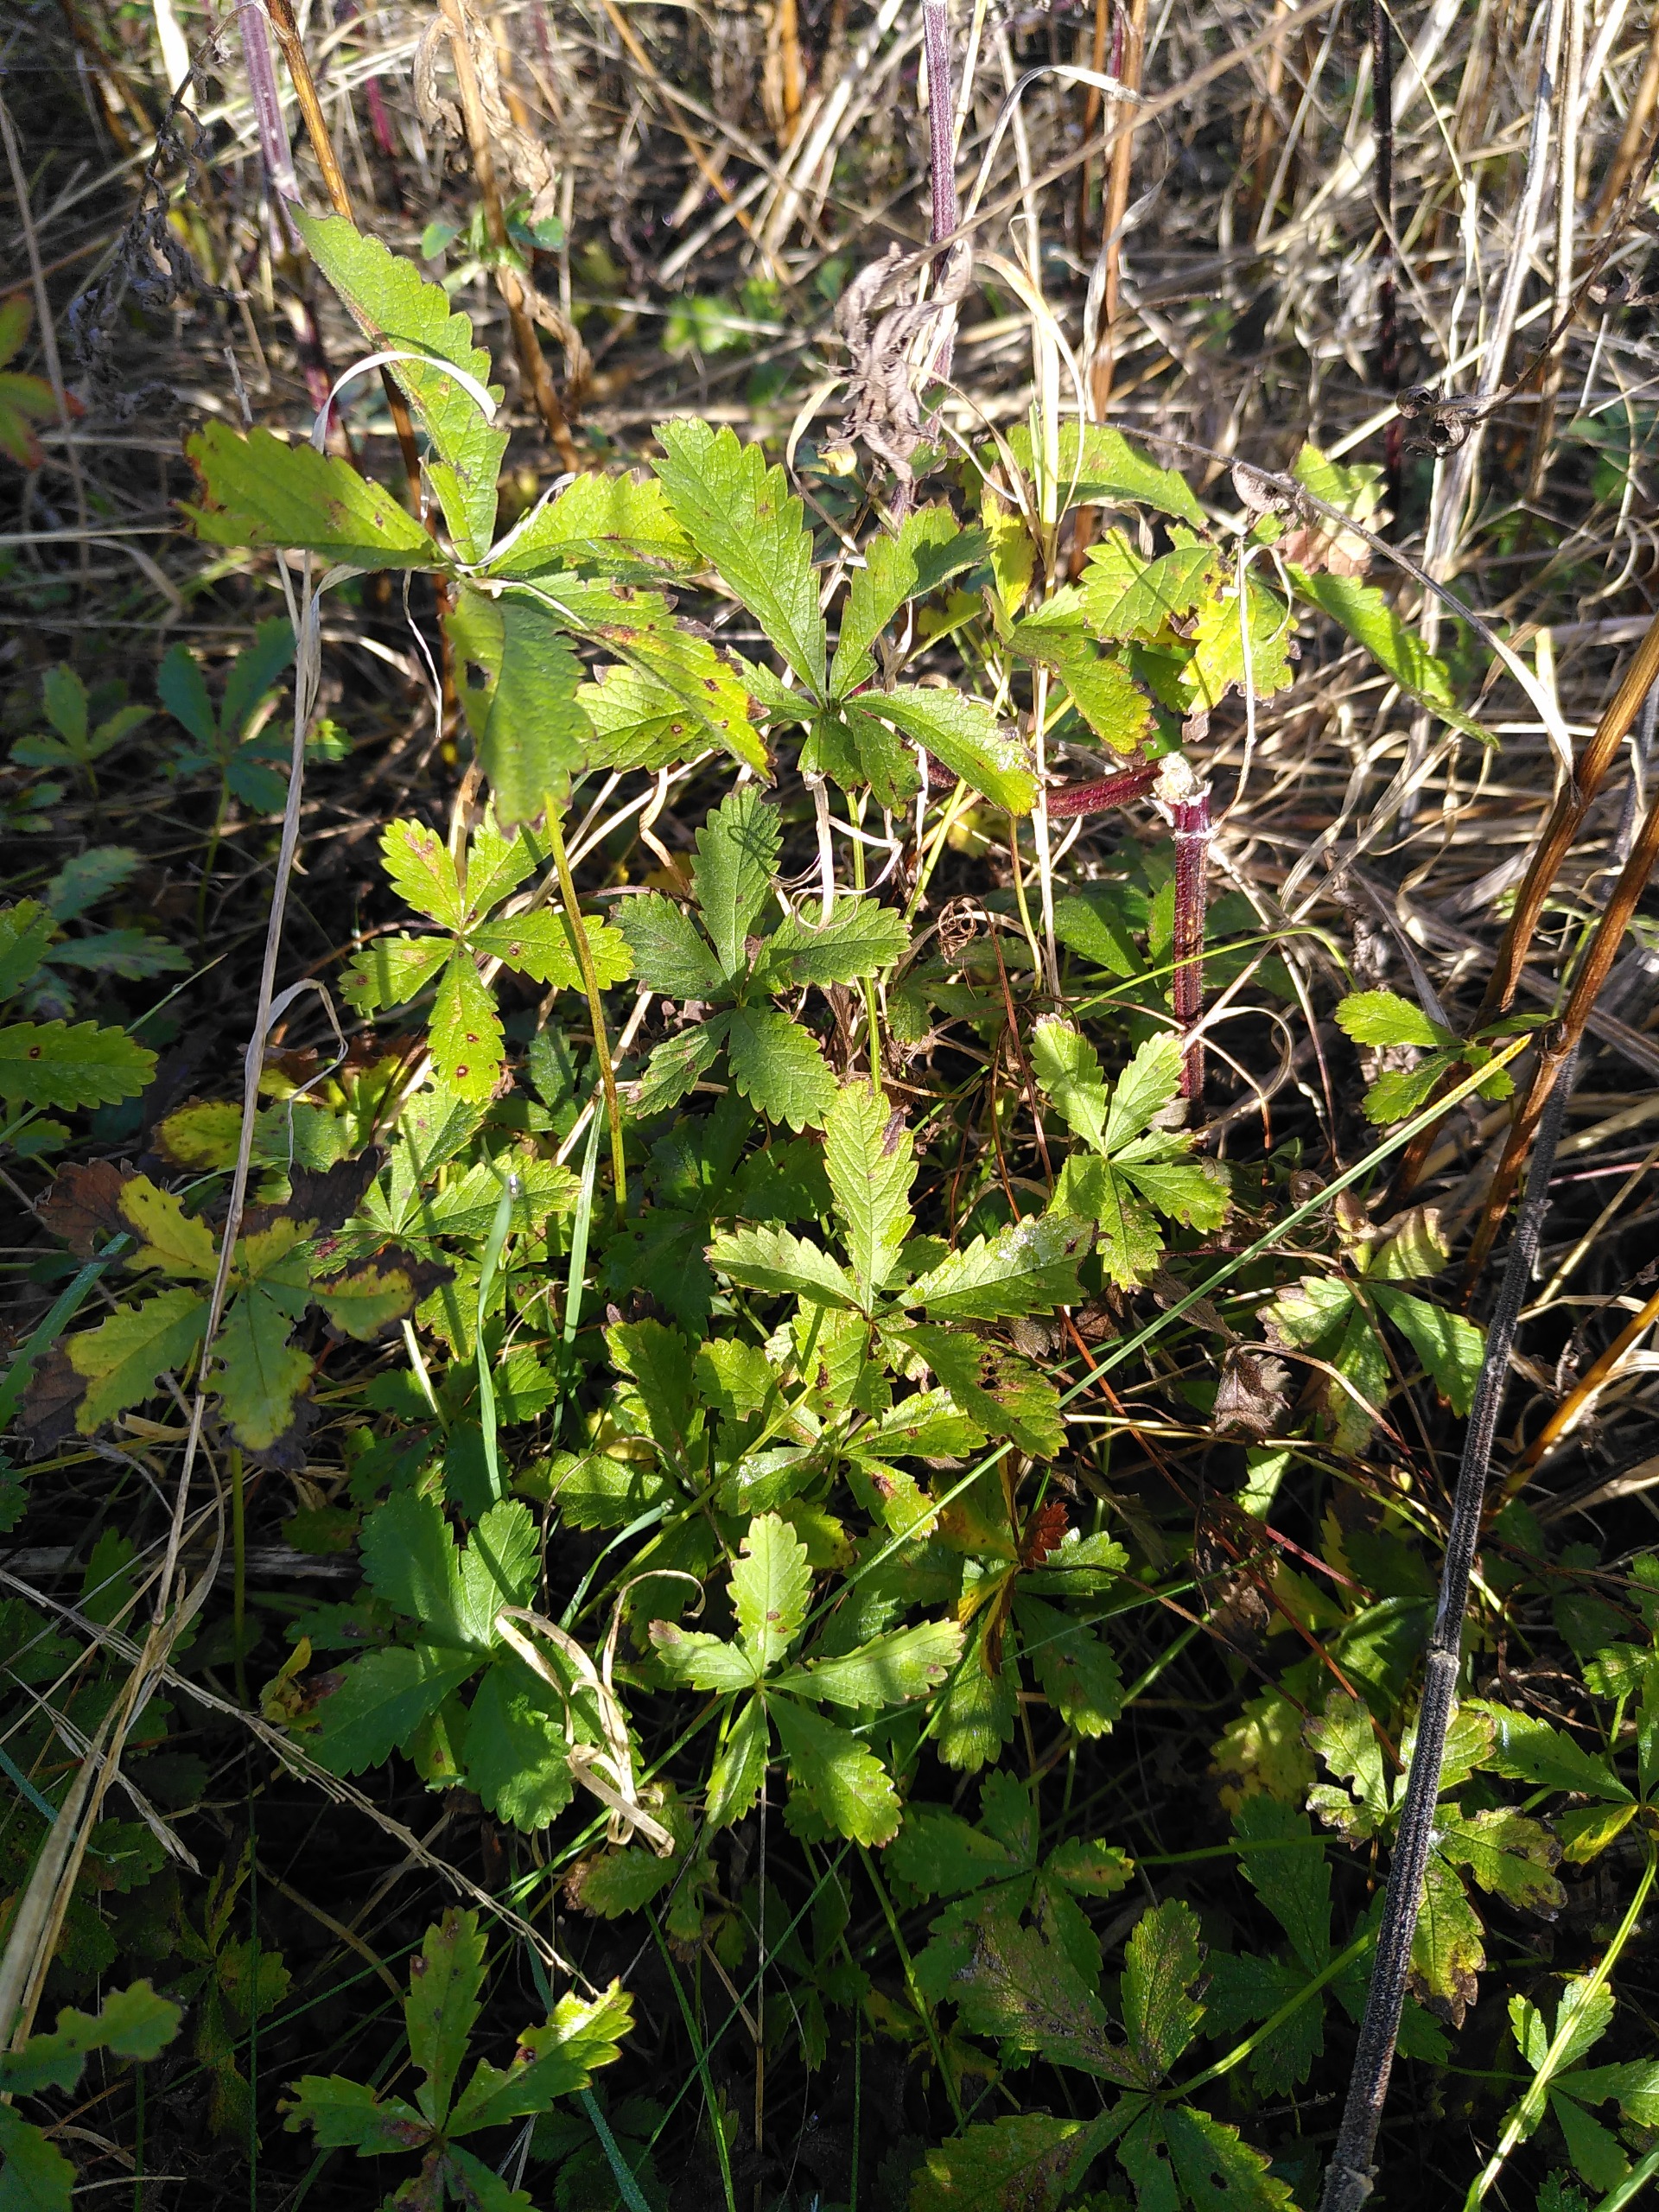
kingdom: Plantae
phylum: Tracheophyta
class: Magnoliopsida
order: Rosales
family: Rosaceae
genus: Potentilla
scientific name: Potentilla reptans
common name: Krybende potentil
